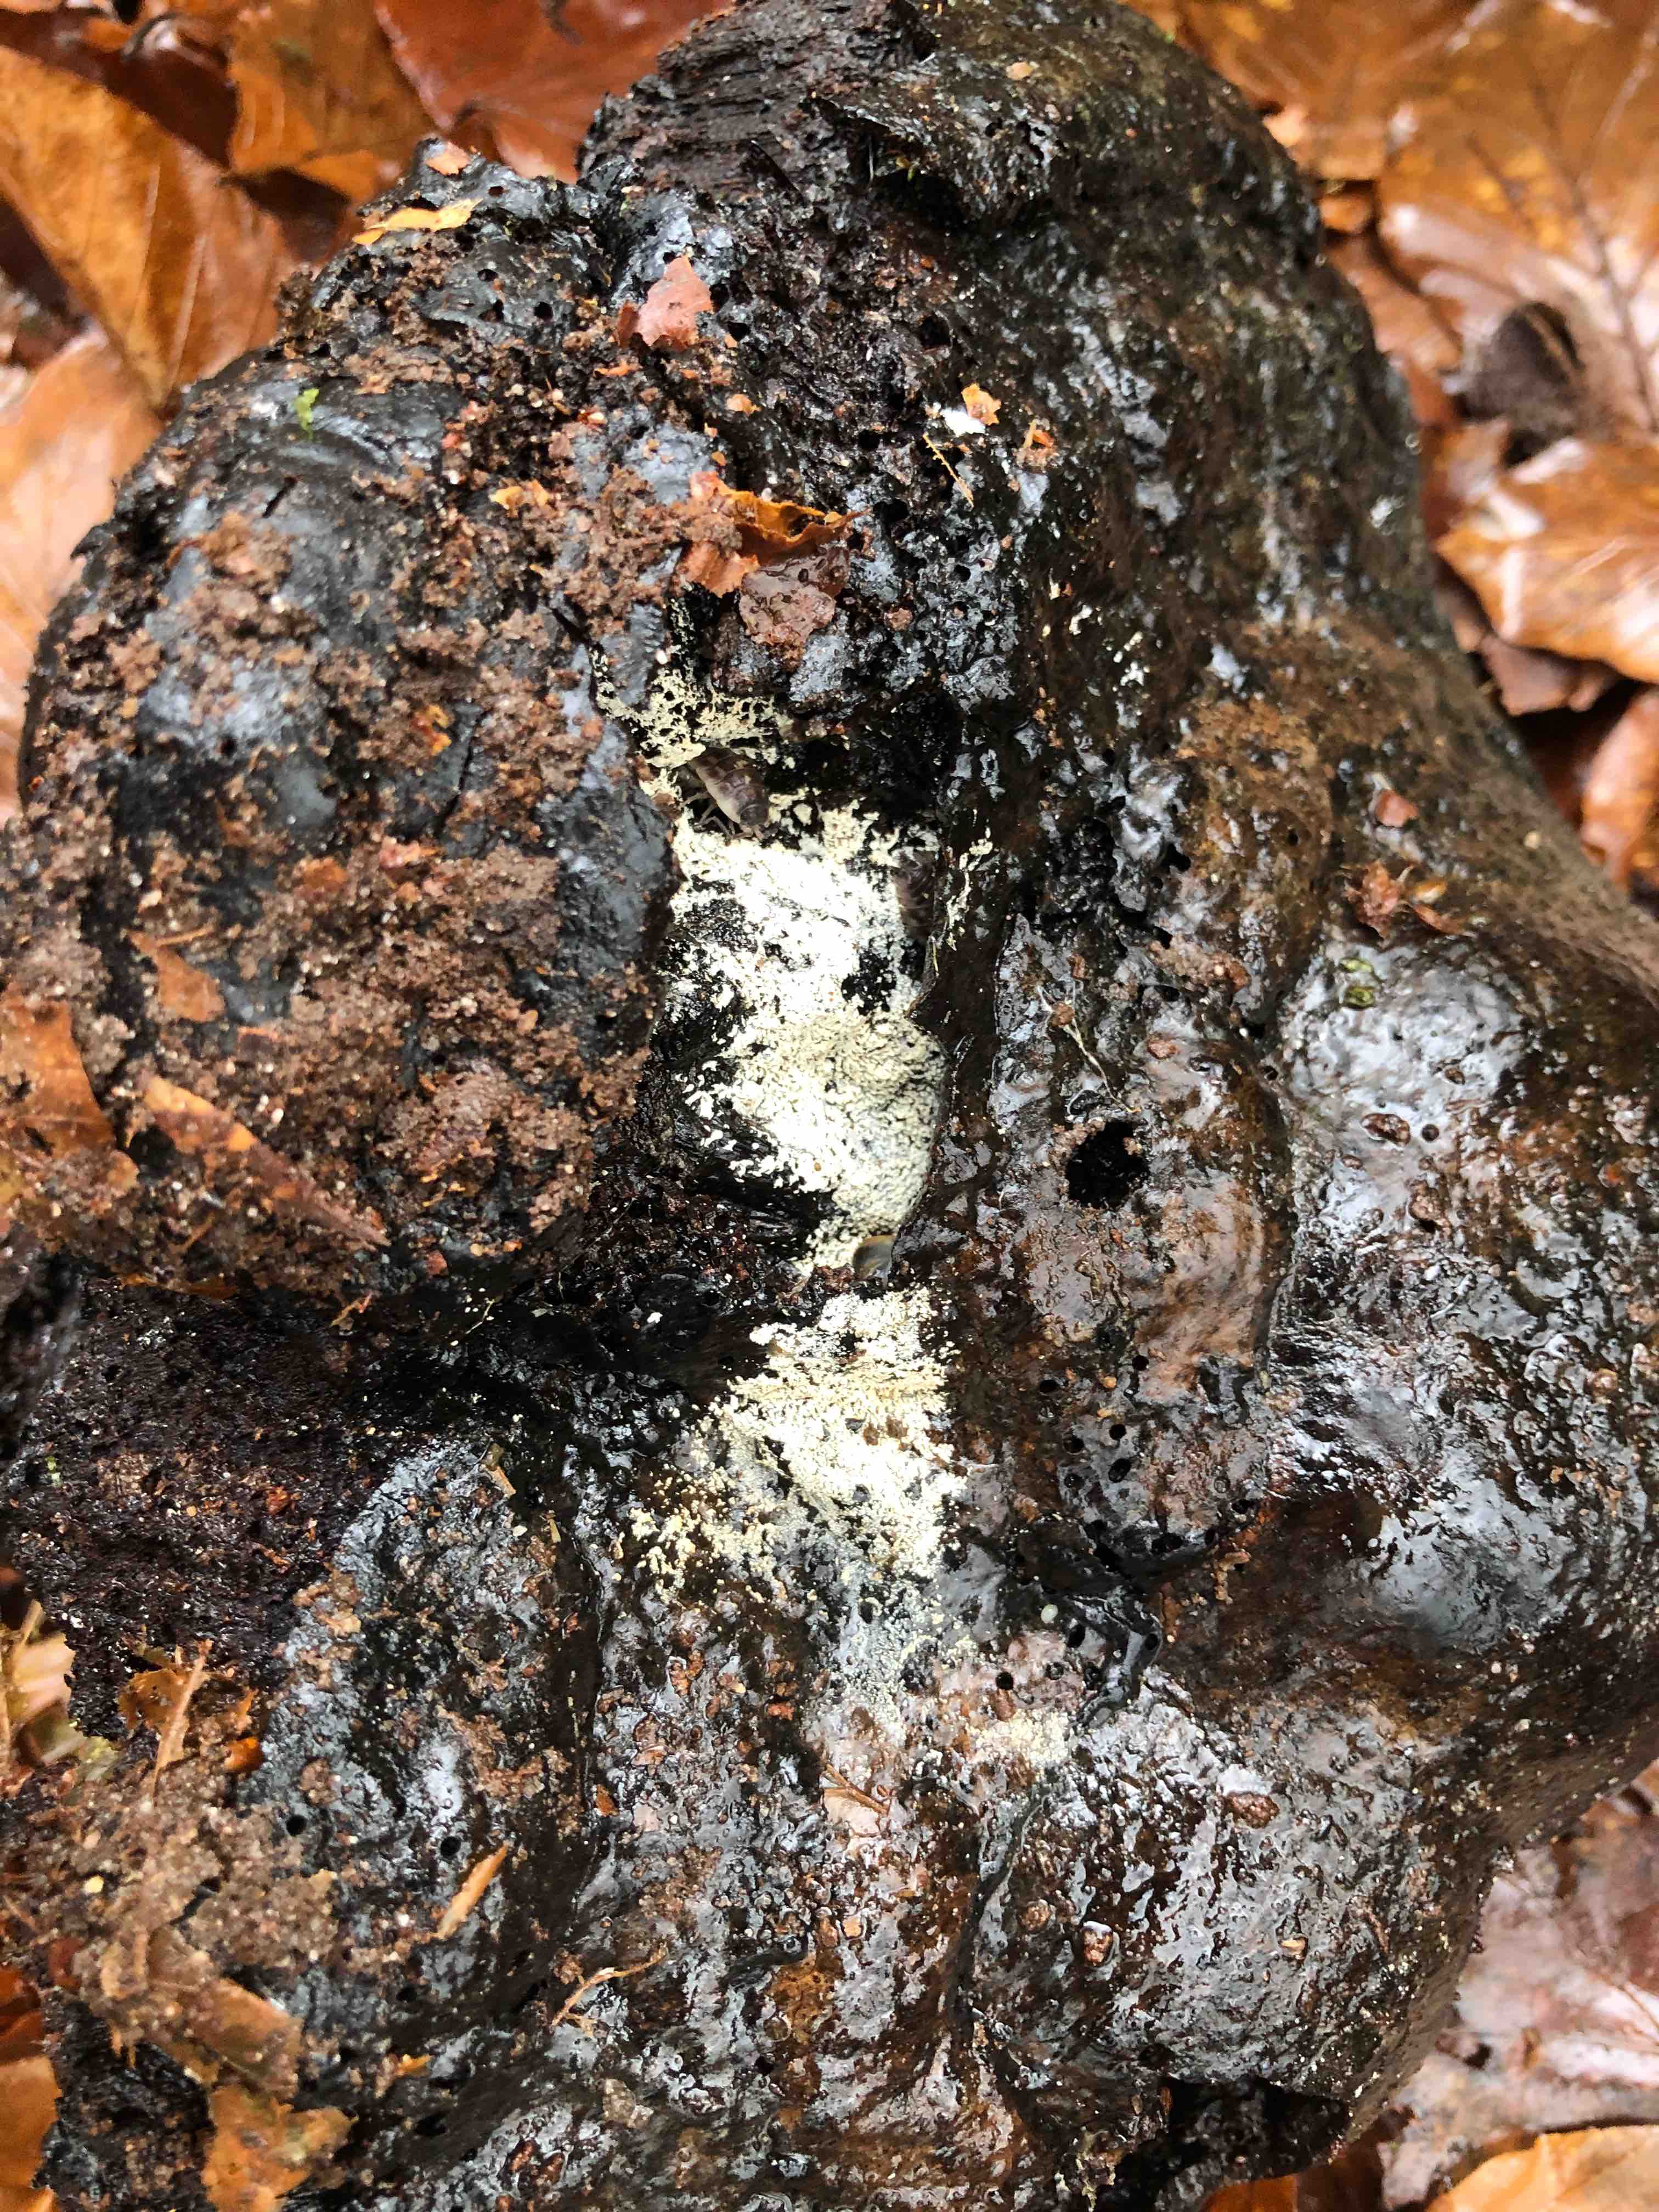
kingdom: Fungi
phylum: Basidiomycota
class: Agaricomycetes
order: Trechisporales
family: Sistotremataceae
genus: Trechispora
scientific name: Trechispora
